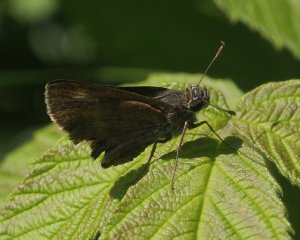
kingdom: Animalia
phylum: Arthropoda
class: Insecta
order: Lepidoptera
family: Hesperiidae
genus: Euphyes
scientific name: Euphyes vestris
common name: Dun Skipper
